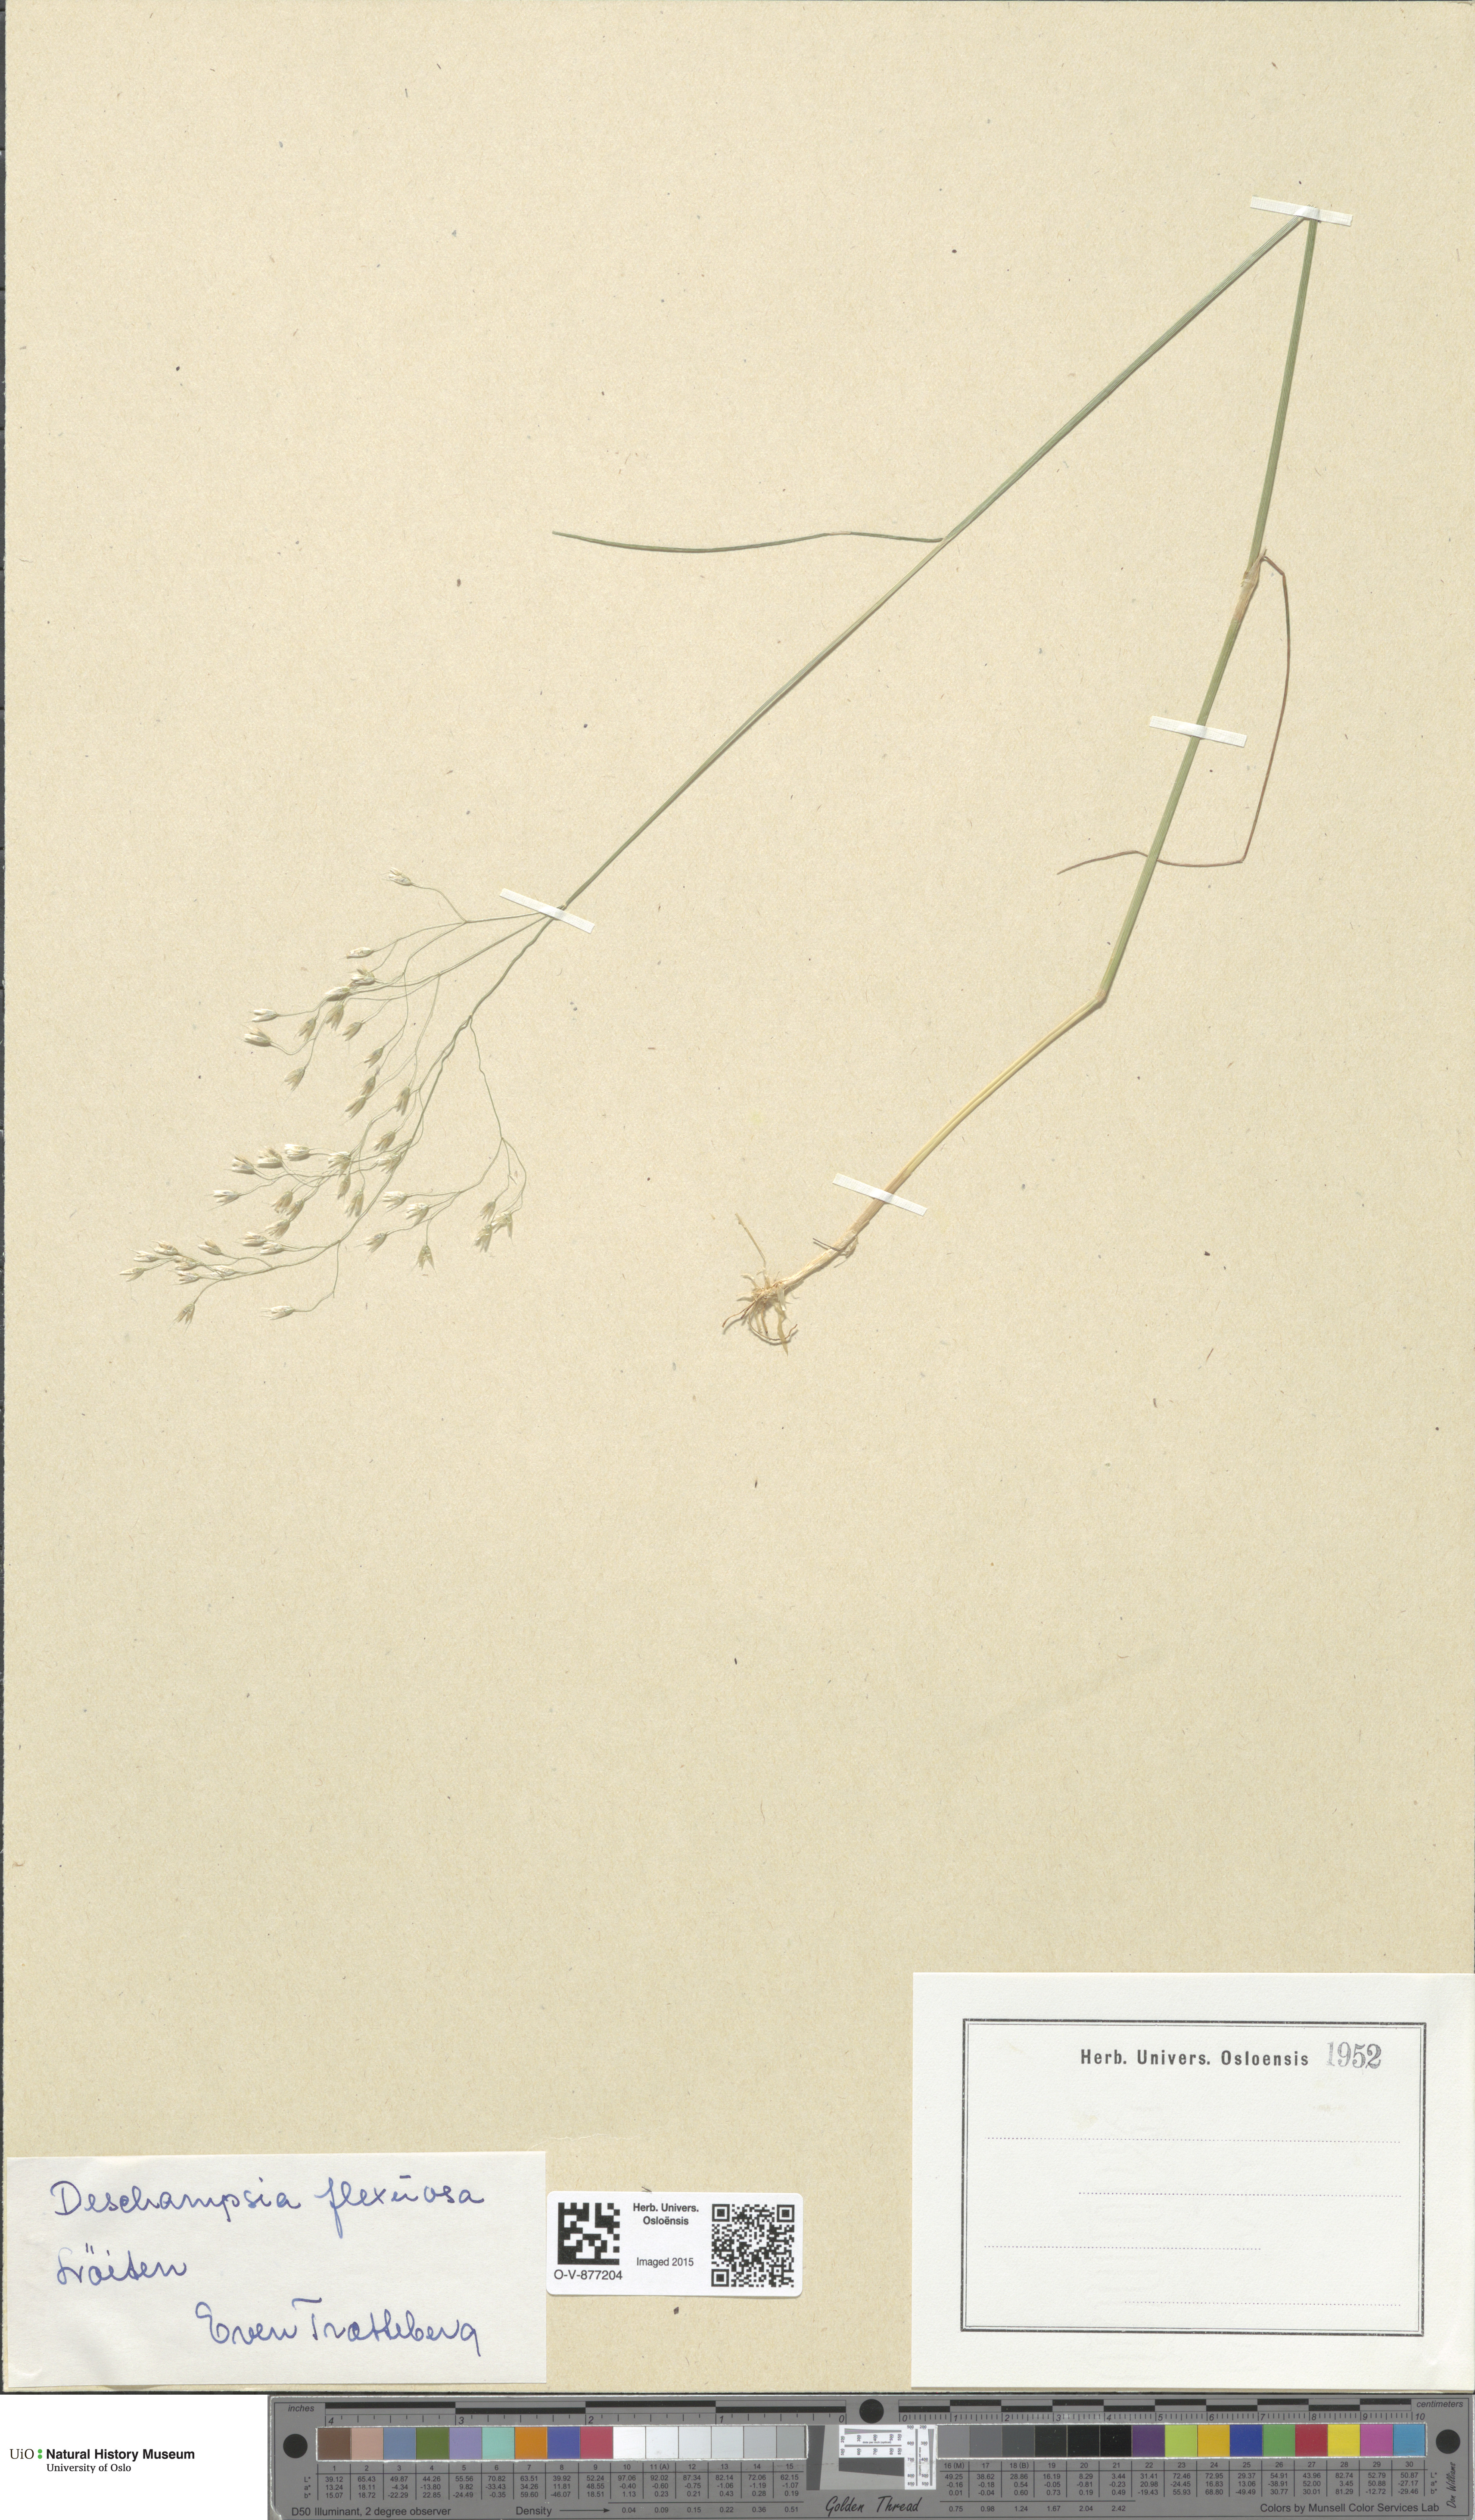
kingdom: Plantae
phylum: Tracheophyta
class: Liliopsida
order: Poales
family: Poaceae
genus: Avenella
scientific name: Avenella flexuosa
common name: Wavy hairgrass
